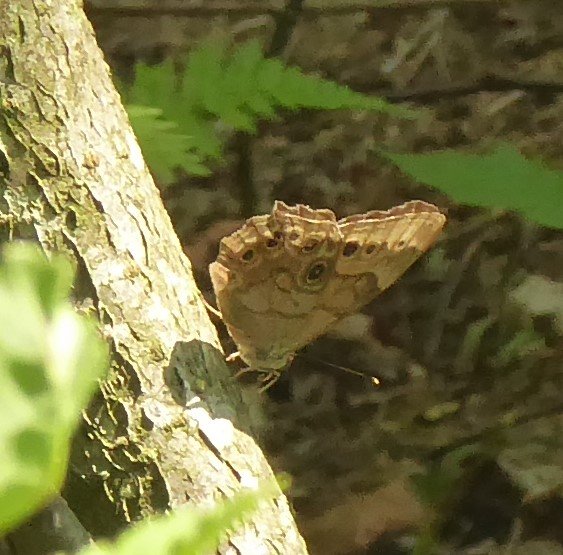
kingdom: Animalia
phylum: Arthropoda
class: Insecta
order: Lepidoptera
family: Nymphalidae
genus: Lethe
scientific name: Lethe anthedon
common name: Northern Pearly-Eye
